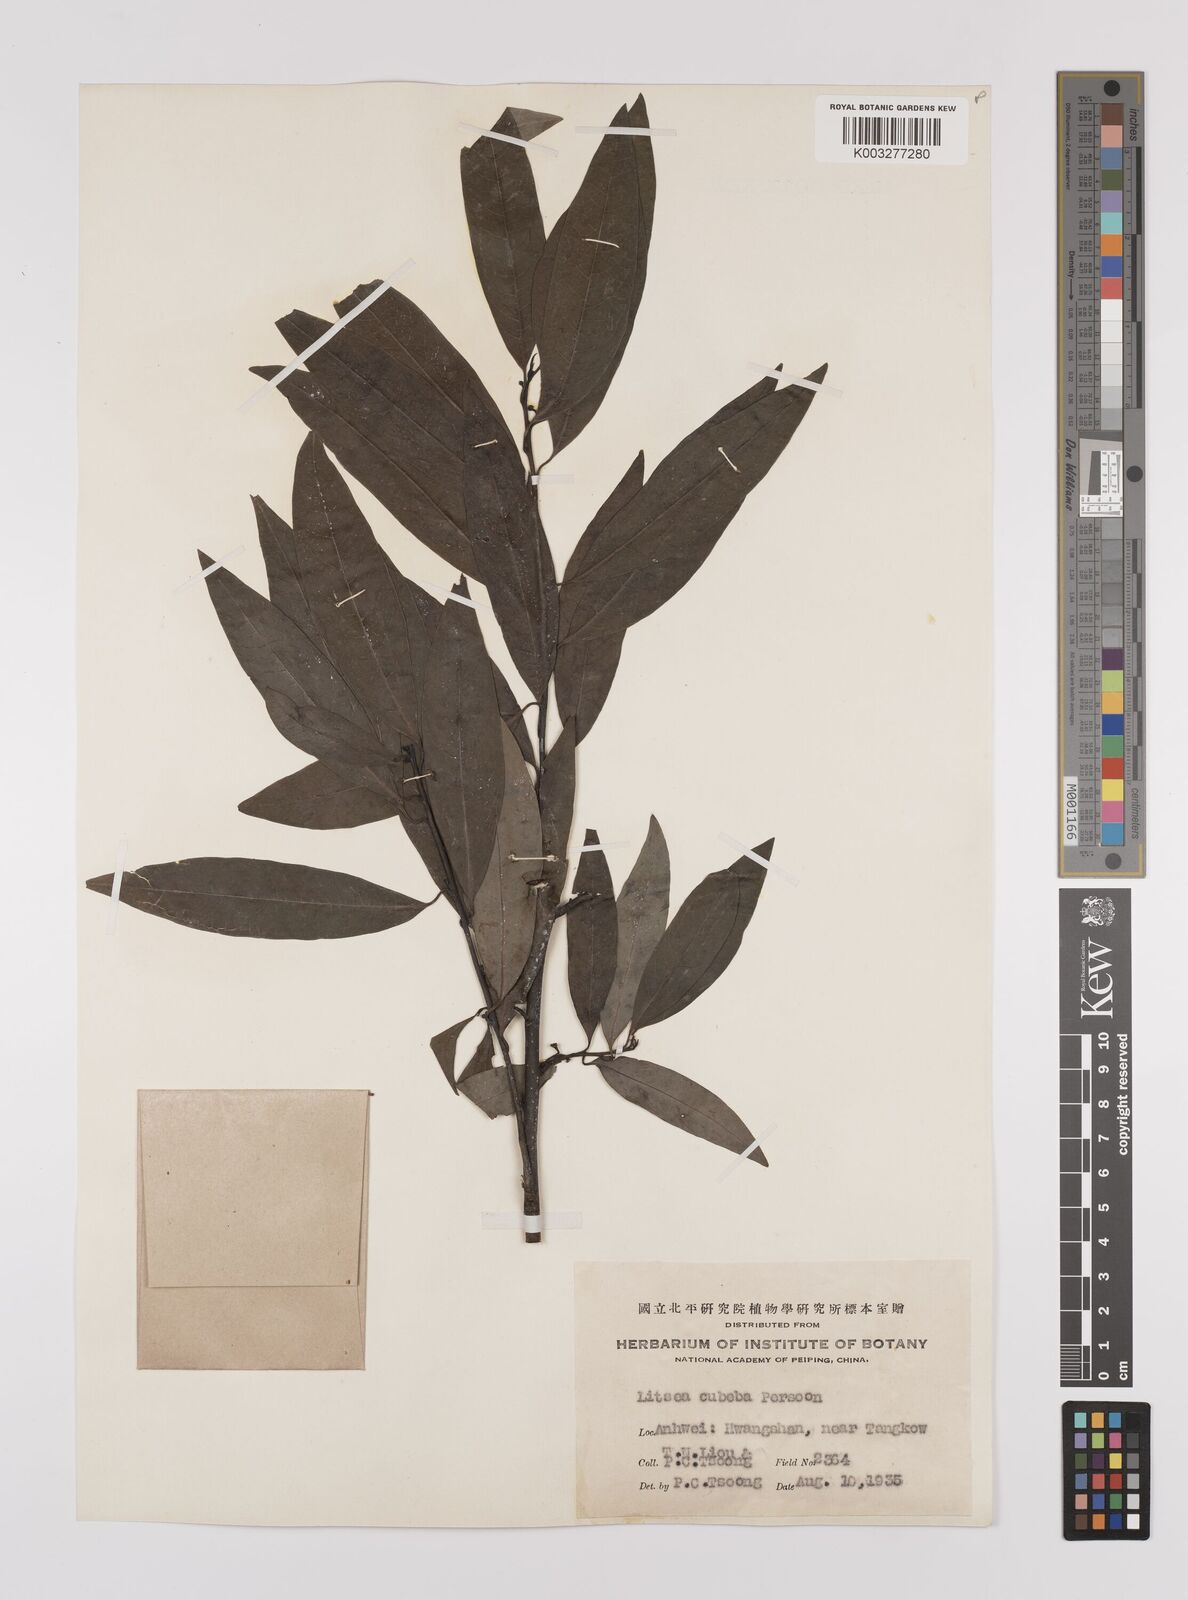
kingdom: Plantae
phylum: Tracheophyta
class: Magnoliopsida
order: Laurales
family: Lauraceae
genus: Litsea
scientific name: Litsea cubeba
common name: Mountain-pepper
